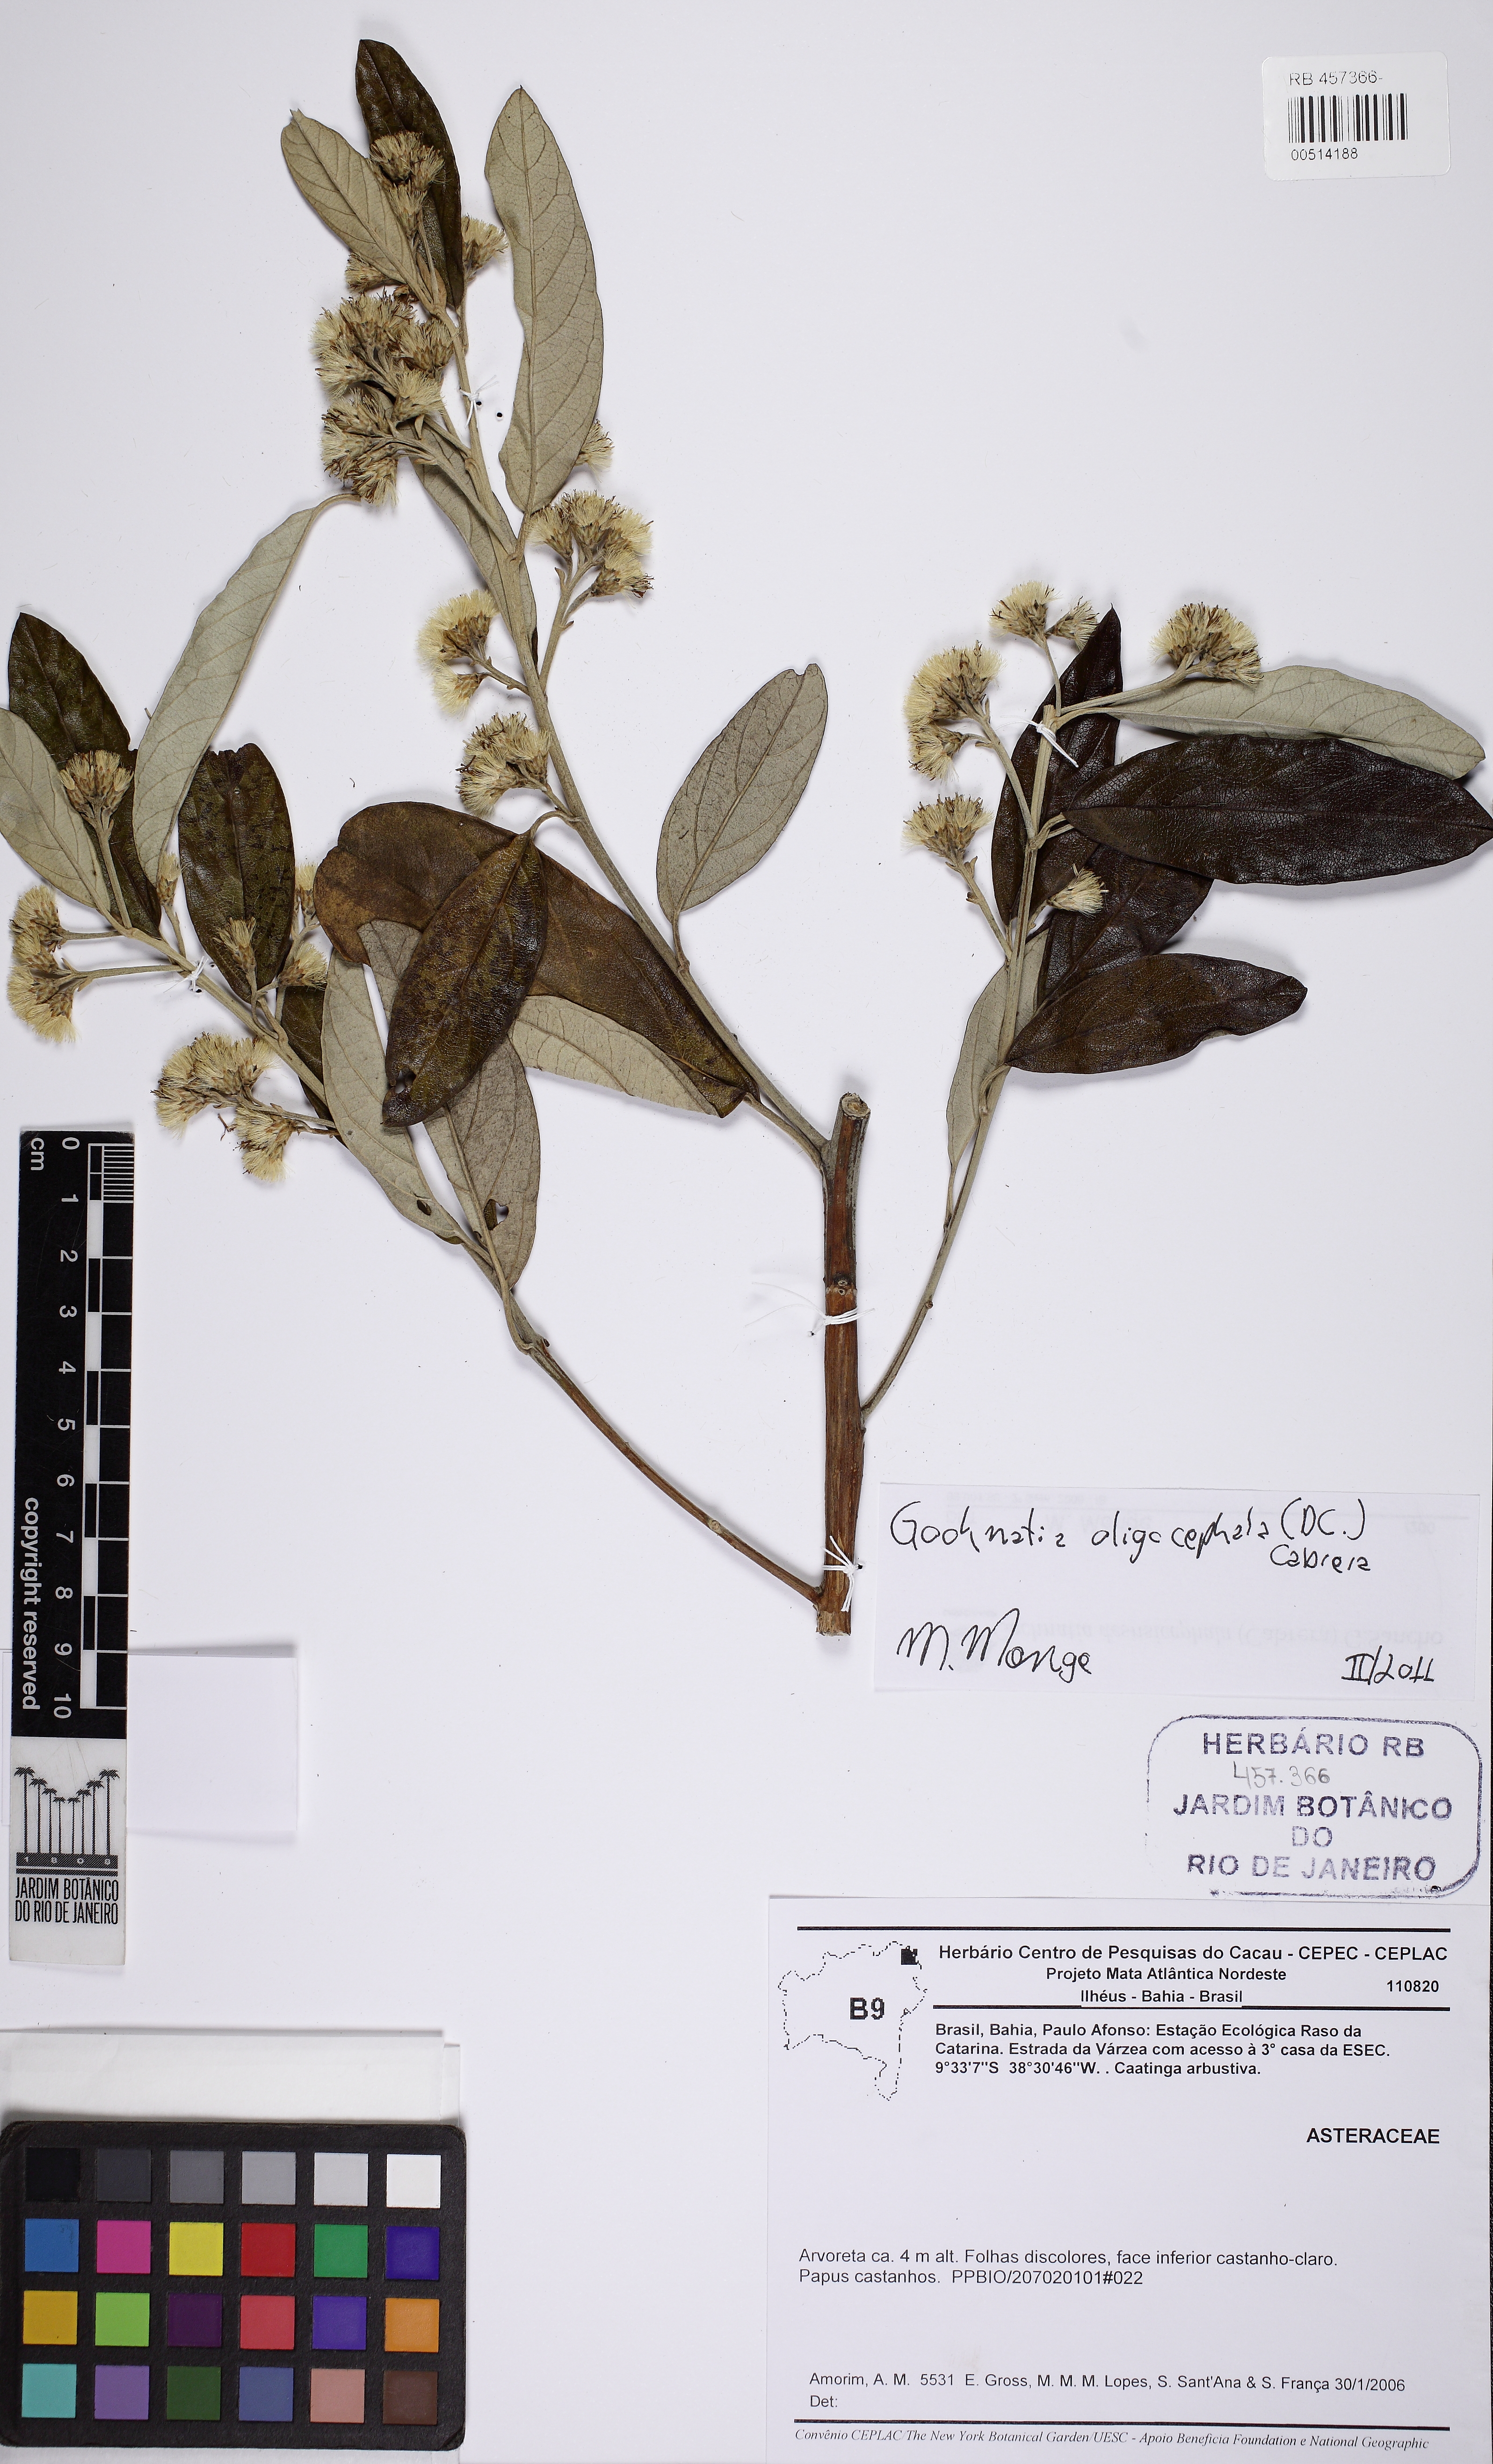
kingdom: Plantae
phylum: Tracheophyta
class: Magnoliopsida
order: Asterales
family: Asteraceae
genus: Moquiniastrum
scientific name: Moquiniastrum oligocephalum
